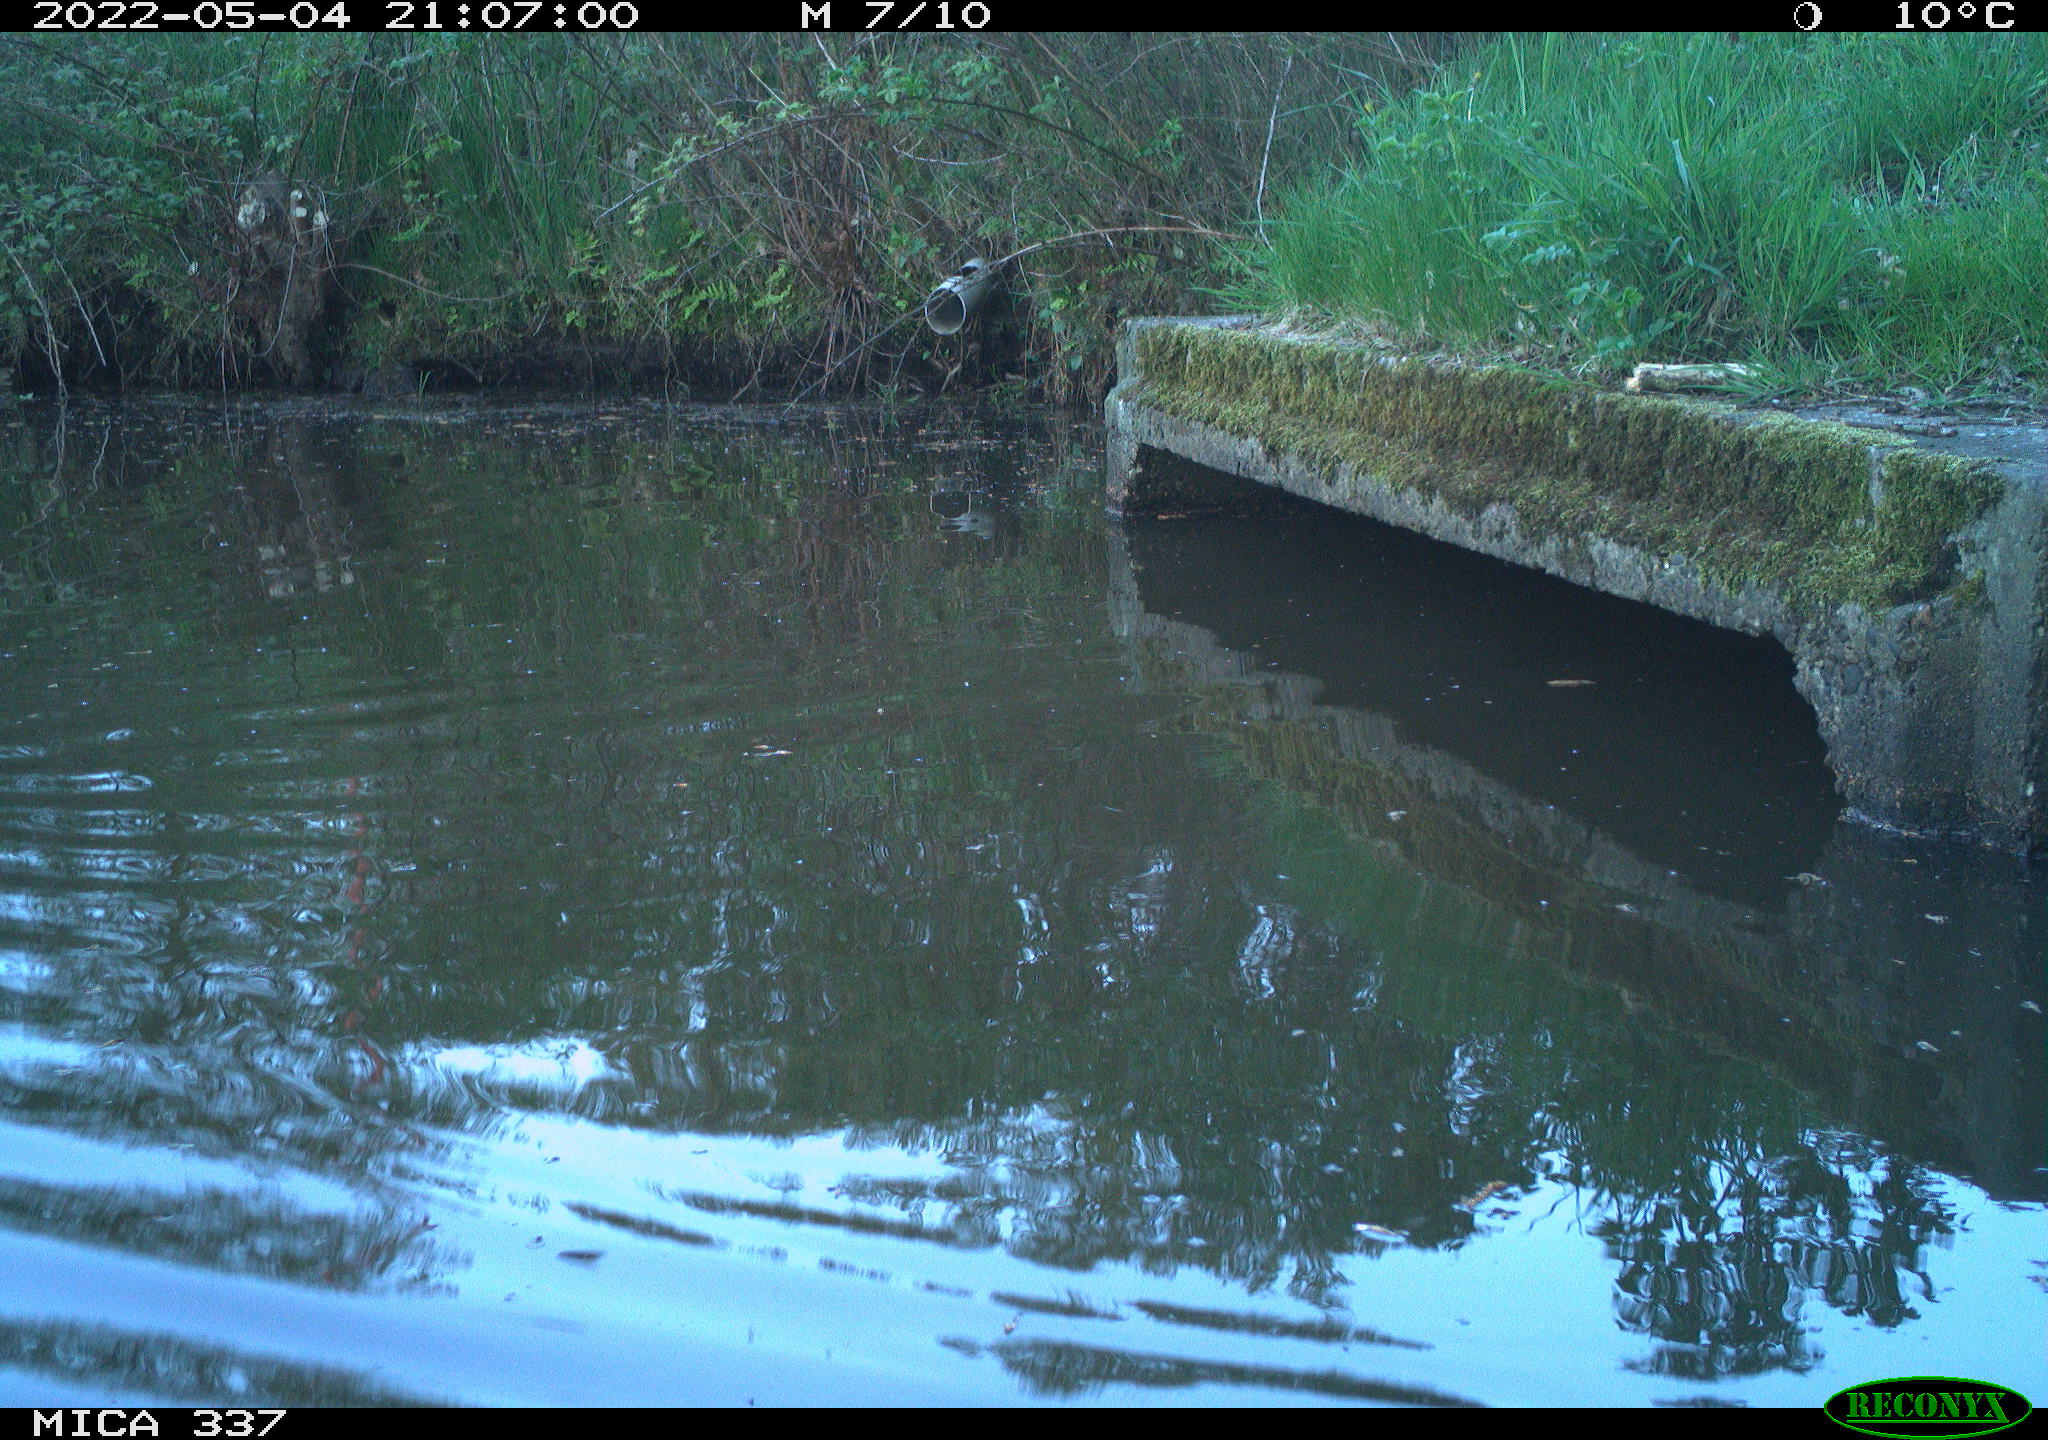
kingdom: Animalia
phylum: Chordata
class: Aves
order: Anseriformes
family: Anatidae
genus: Anas
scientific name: Anas platyrhynchos
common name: Mallard
